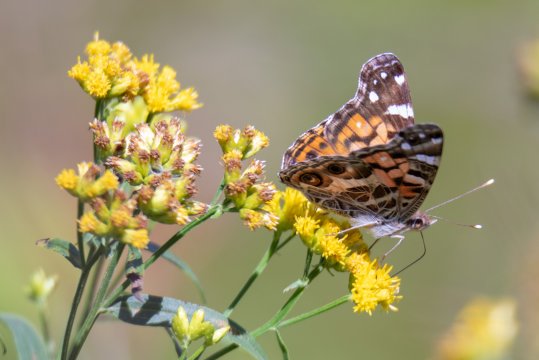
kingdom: Animalia
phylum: Arthropoda
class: Insecta
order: Lepidoptera
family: Nymphalidae
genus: Vanessa
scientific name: Vanessa virginiensis
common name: American Lady
